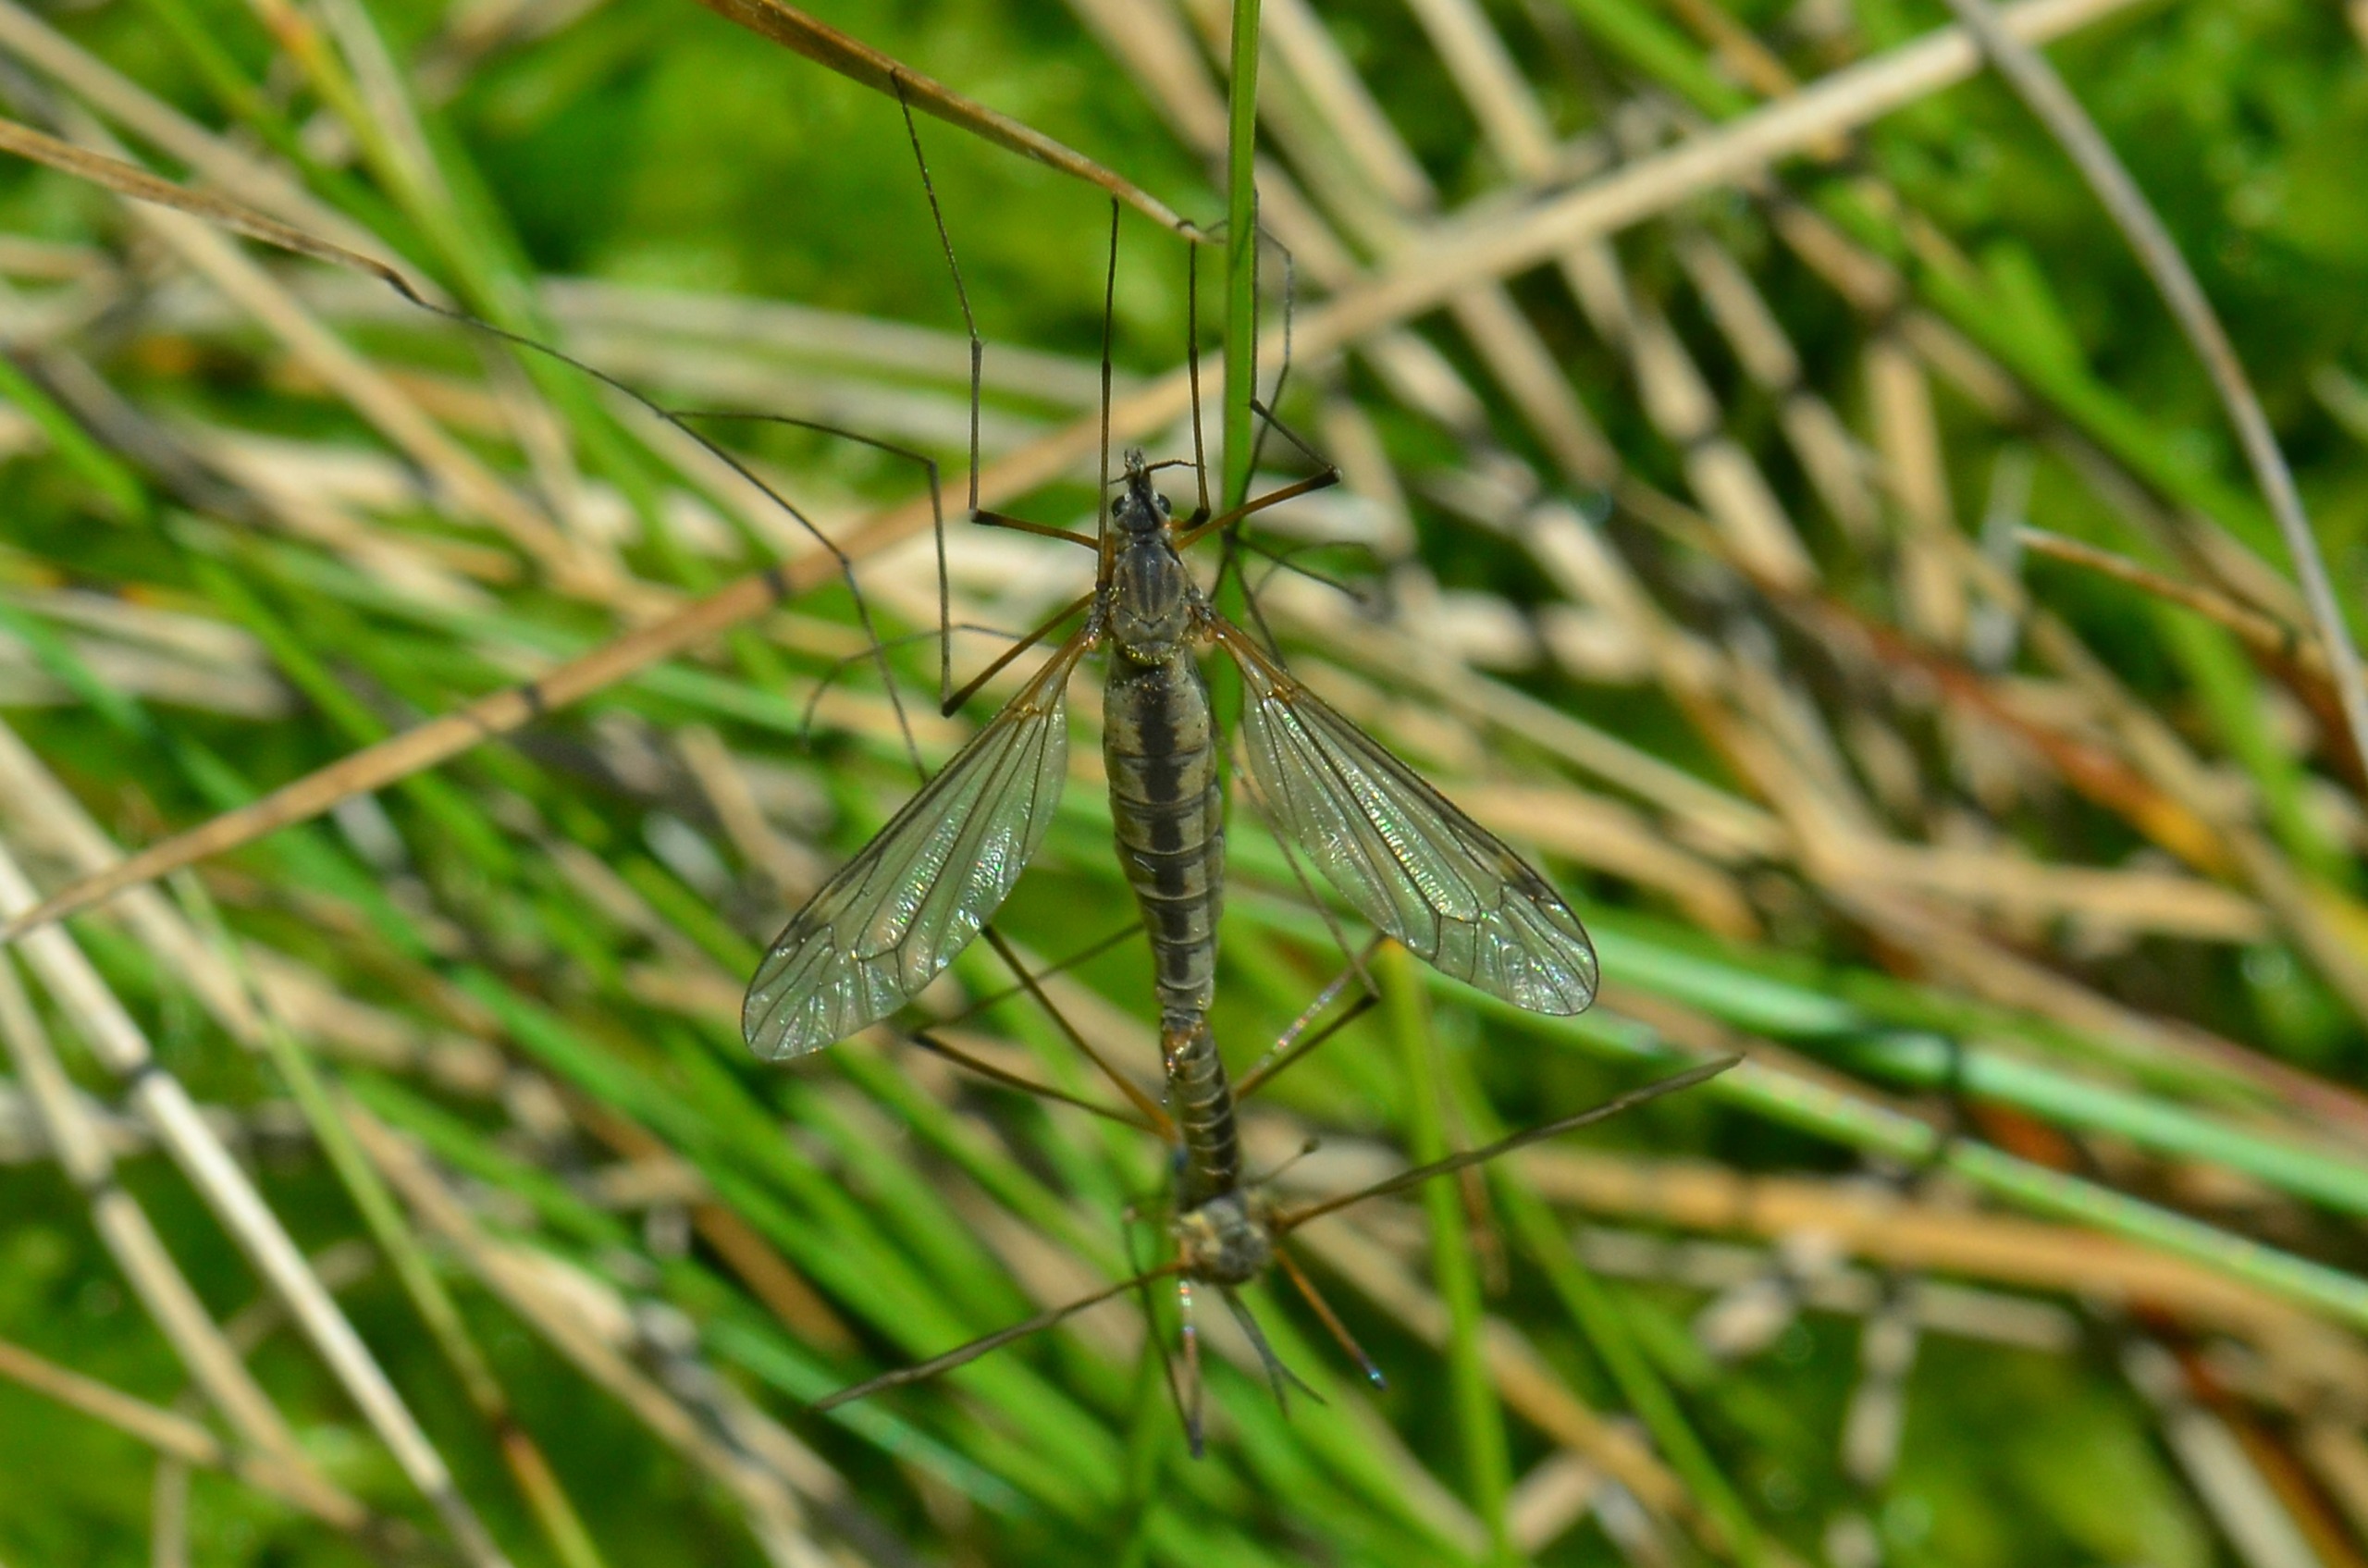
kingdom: Animalia
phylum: Arthropoda
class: Insecta
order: Diptera
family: Tipulidae
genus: Prionocera
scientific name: Prionocera pubescens
